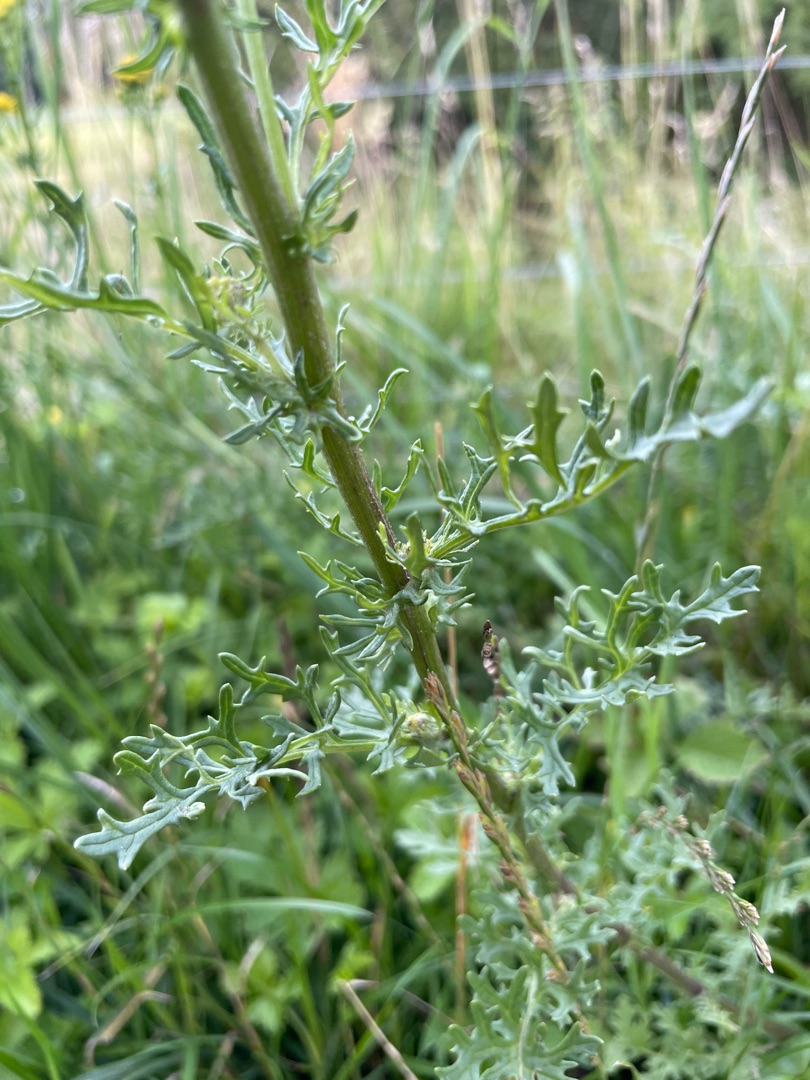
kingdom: Plantae
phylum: Tracheophyta
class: Magnoliopsida
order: Asterales
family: Asteraceae
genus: Jacobaea
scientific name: Jacobaea vulgaris
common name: Eng-brandbæger
